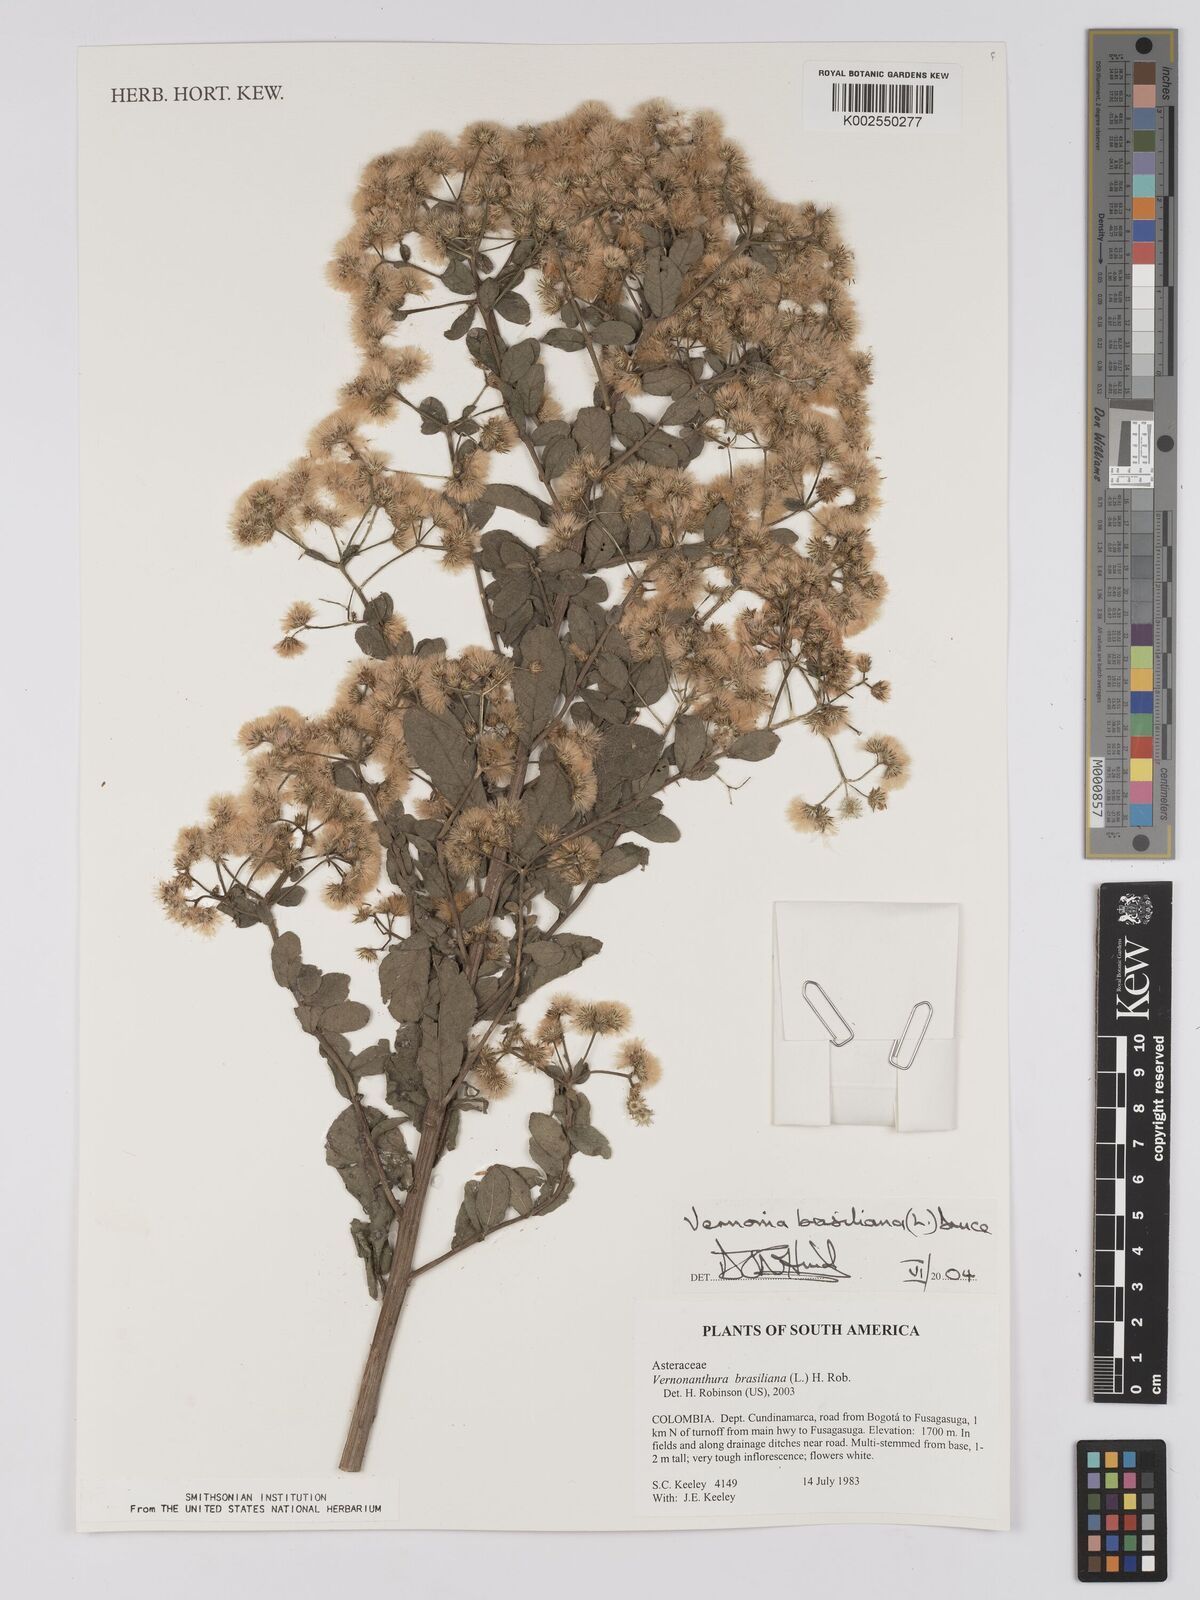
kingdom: Plantae
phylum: Tracheophyta
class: Magnoliopsida
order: Asterales
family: Asteraceae
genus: Vernonanthura
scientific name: Vernonanthura brasiliana
